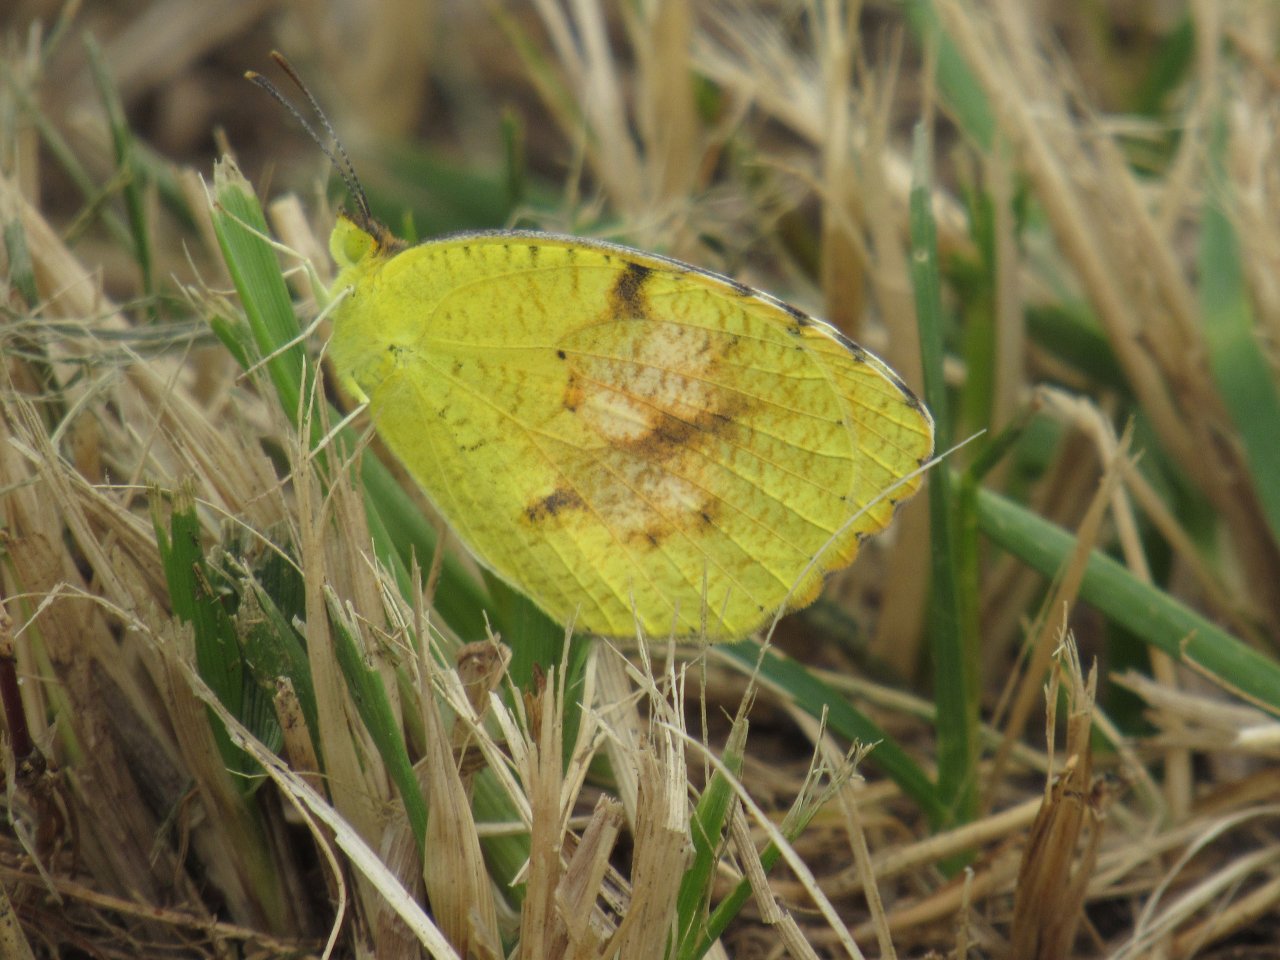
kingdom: Animalia
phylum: Arthropoda
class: Insecta
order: Lepidoptera
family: Pieridae
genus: Abaeis
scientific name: Abaeis nicippe
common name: Sleepy Orange
